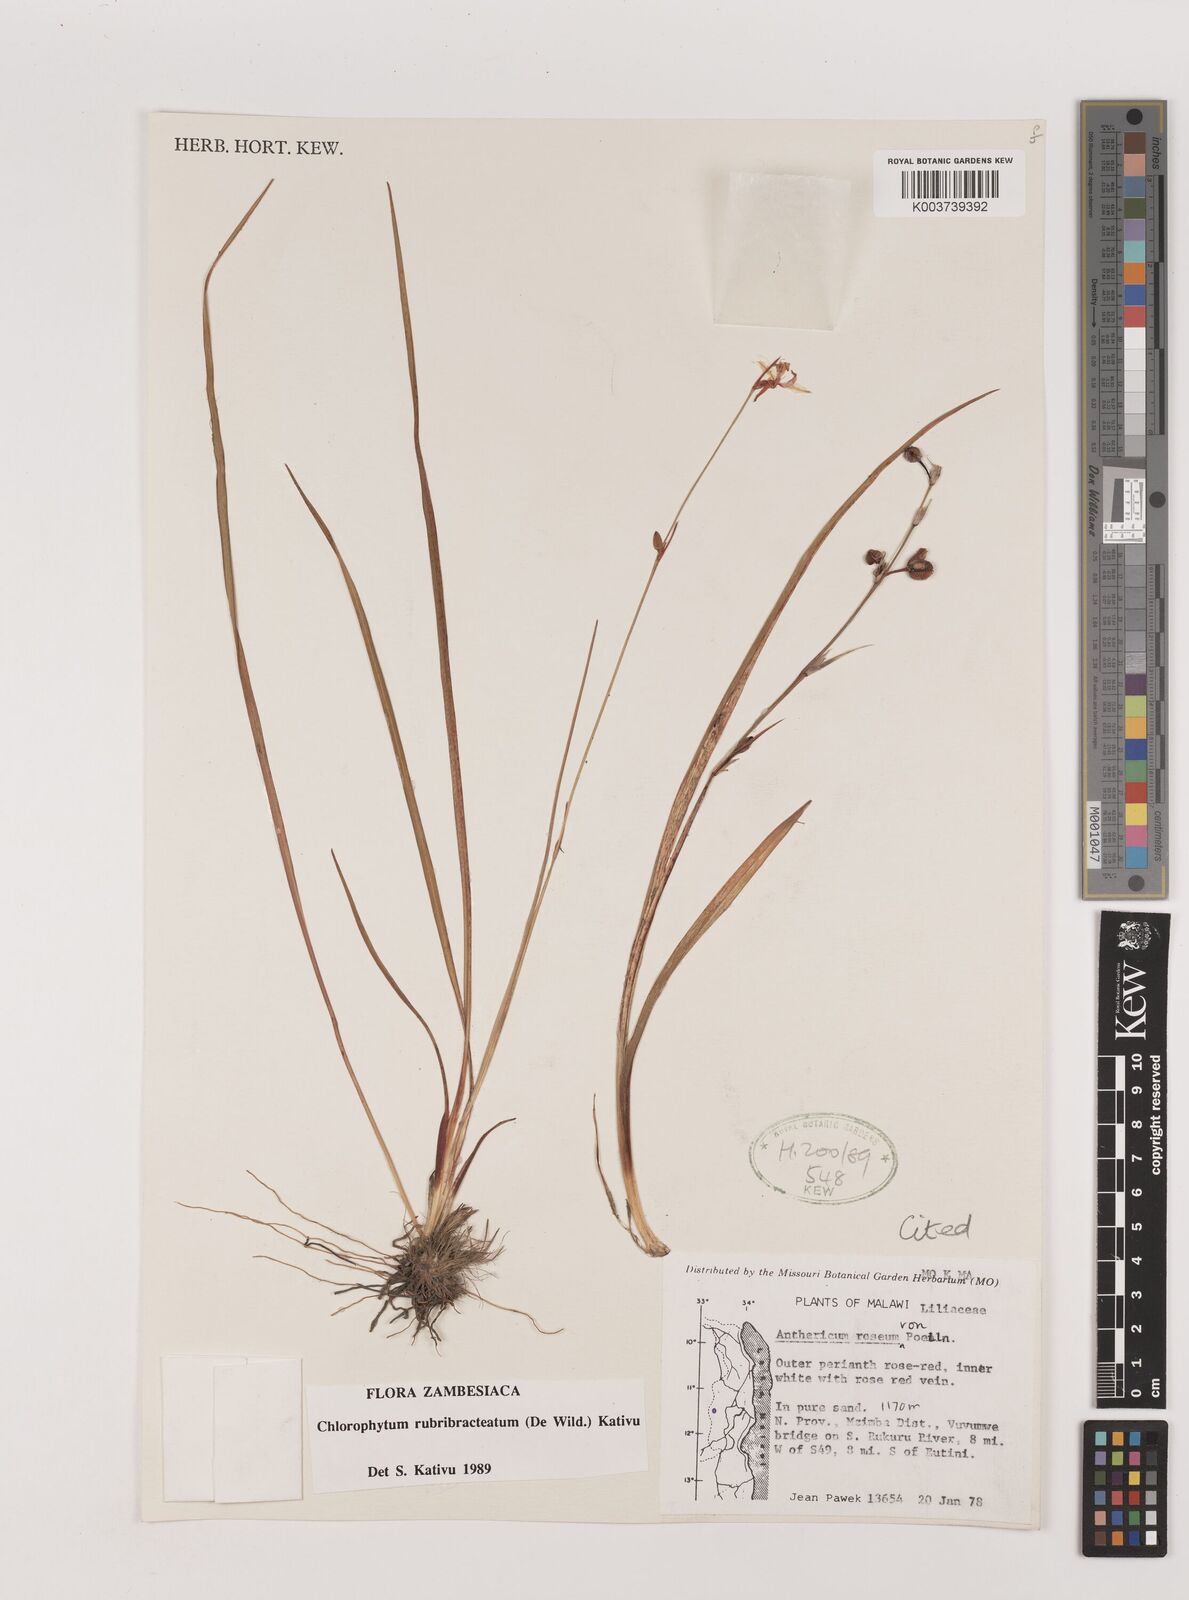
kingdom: Plantae
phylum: Tracheophyta
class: Liliopsida
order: Asparagales
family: Asparagaceae
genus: Chlorophytum
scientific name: Chlorophytum rubribracteatum
